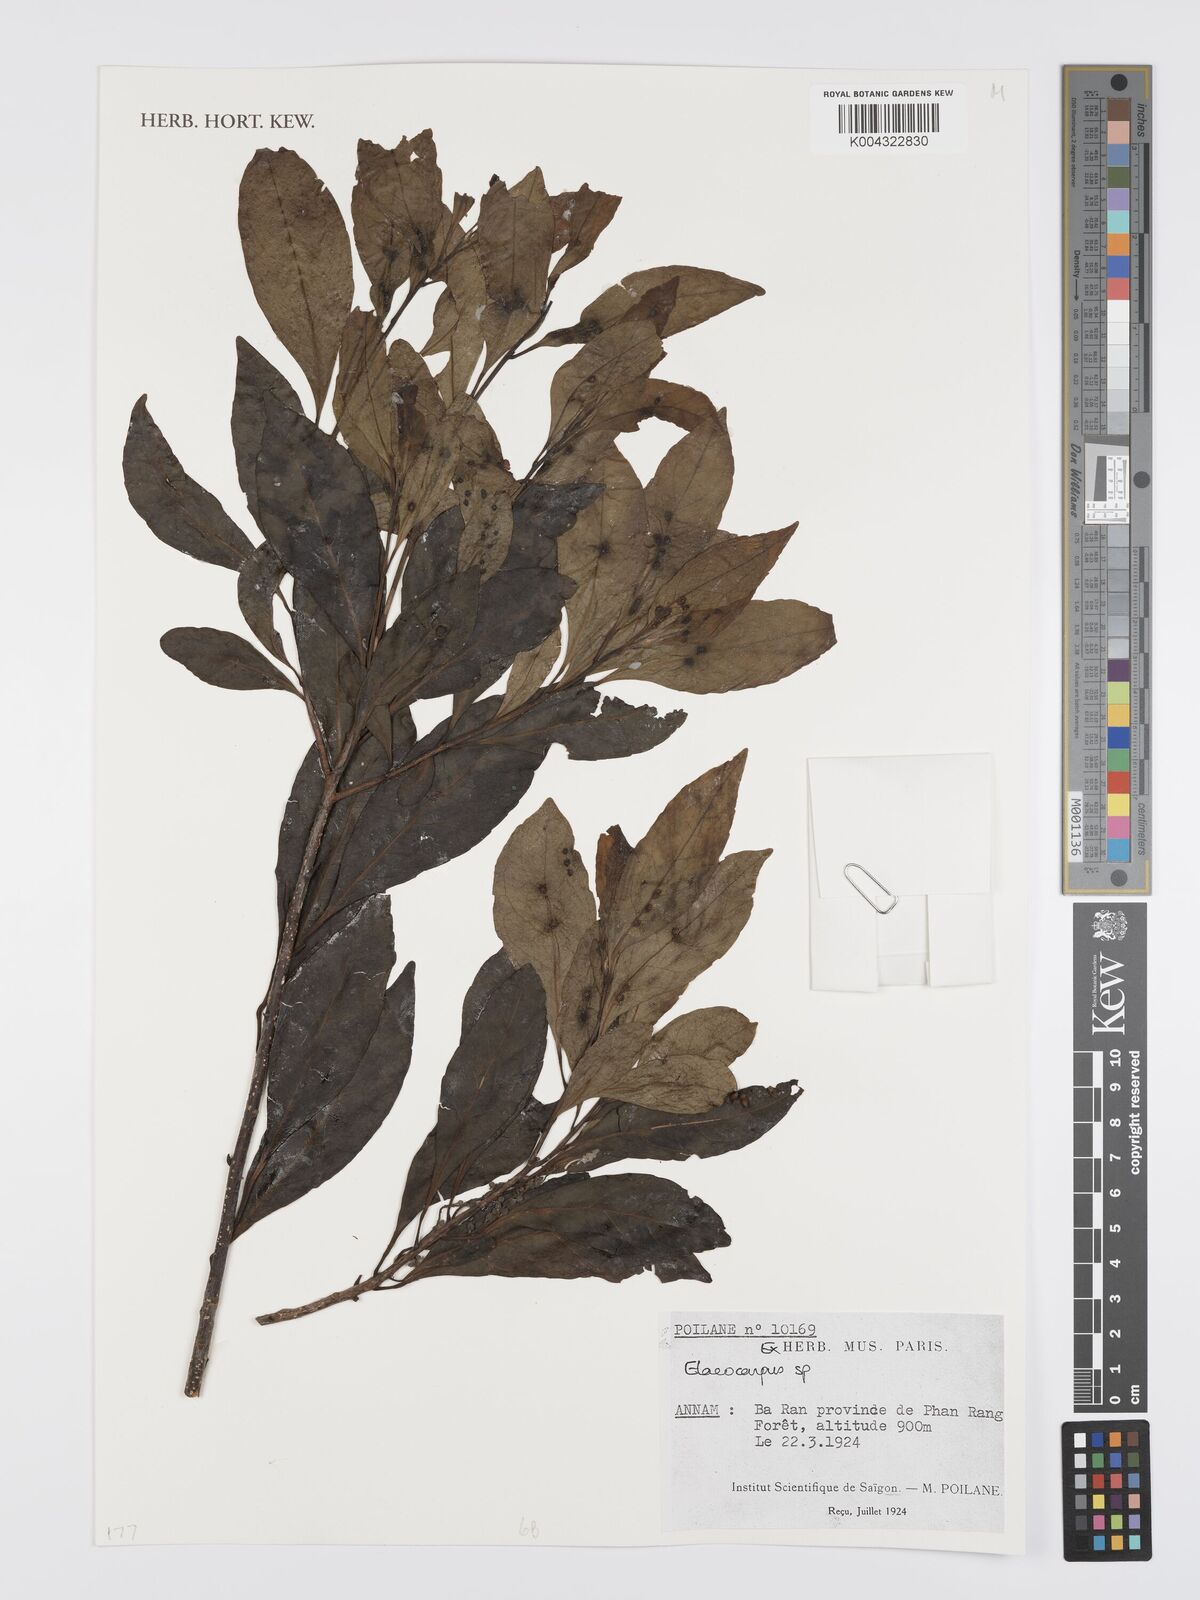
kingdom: Plantae
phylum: Tracheophyta
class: Magnoliopsida
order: Oxalidales
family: Elaeocarpaceae
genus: Elaeocarpus
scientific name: Elaeocarpus
